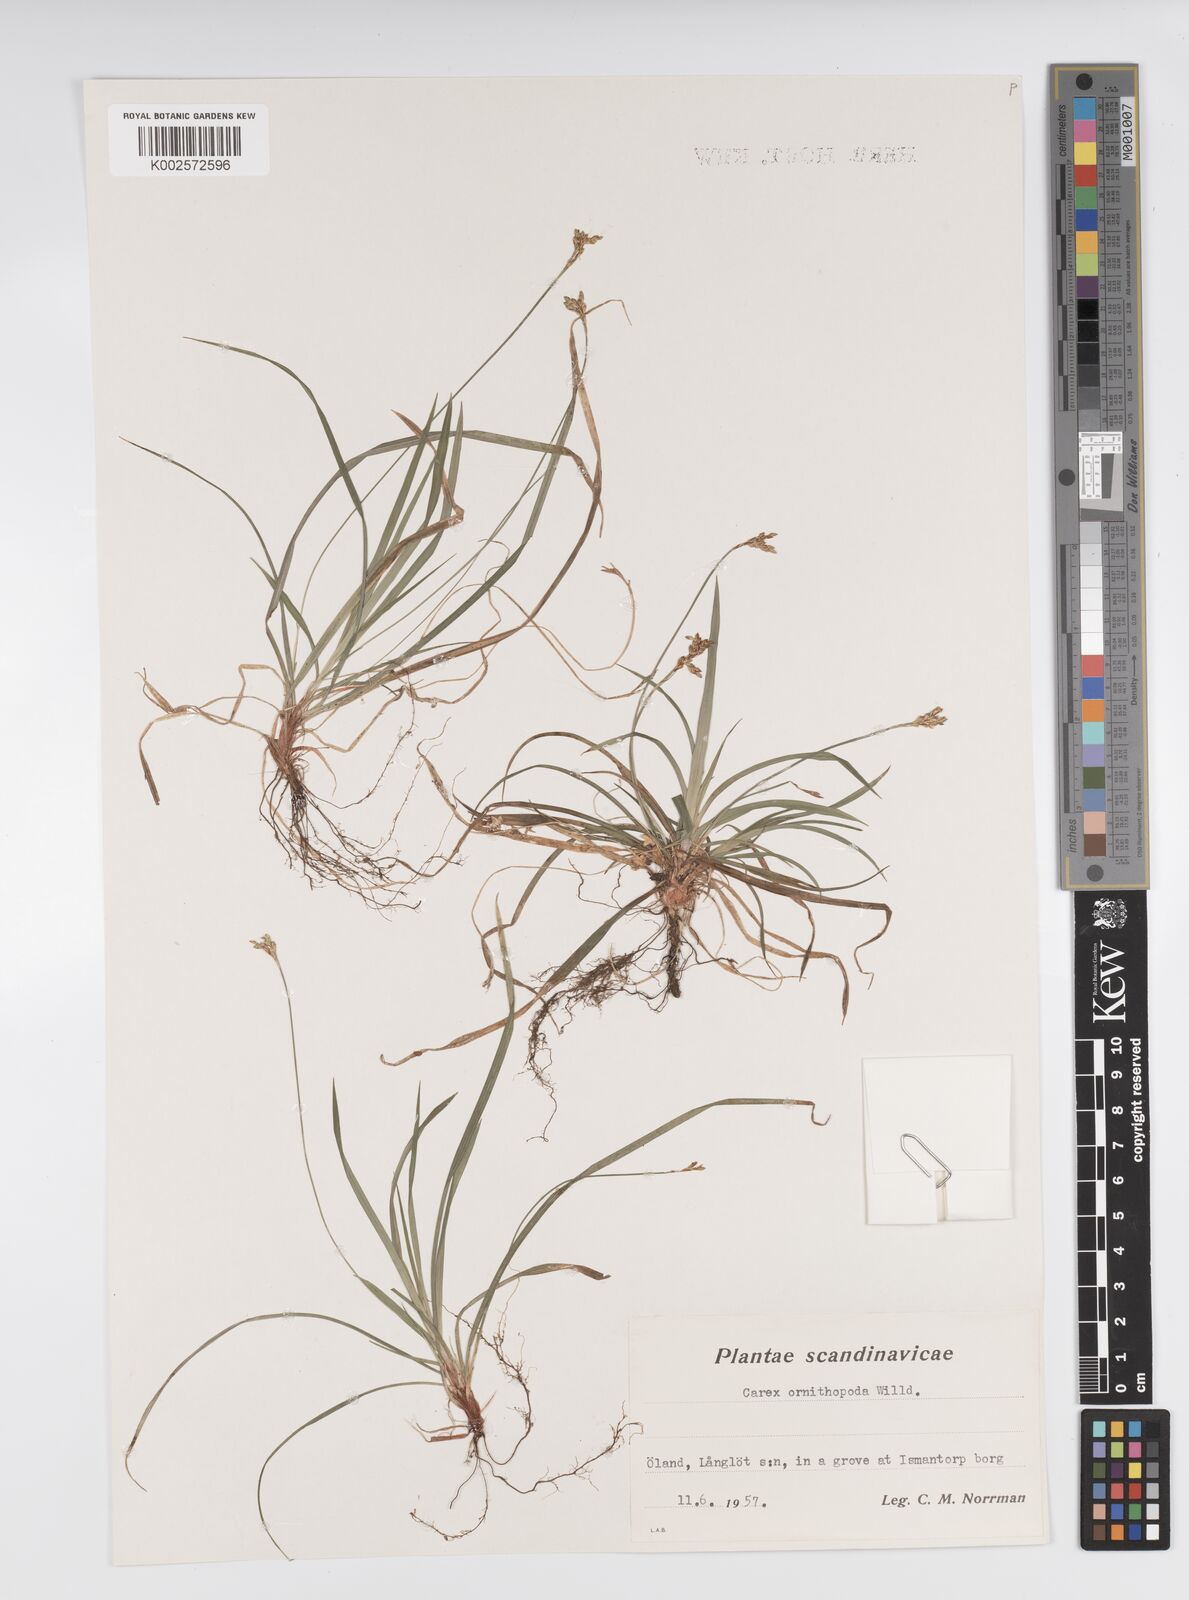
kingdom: Plantae
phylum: Tracheophyta
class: Liliopsida
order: Poales
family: Cyperaceae
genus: Carex
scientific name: Carex ornithopoda
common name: Bird's-foot sedge
